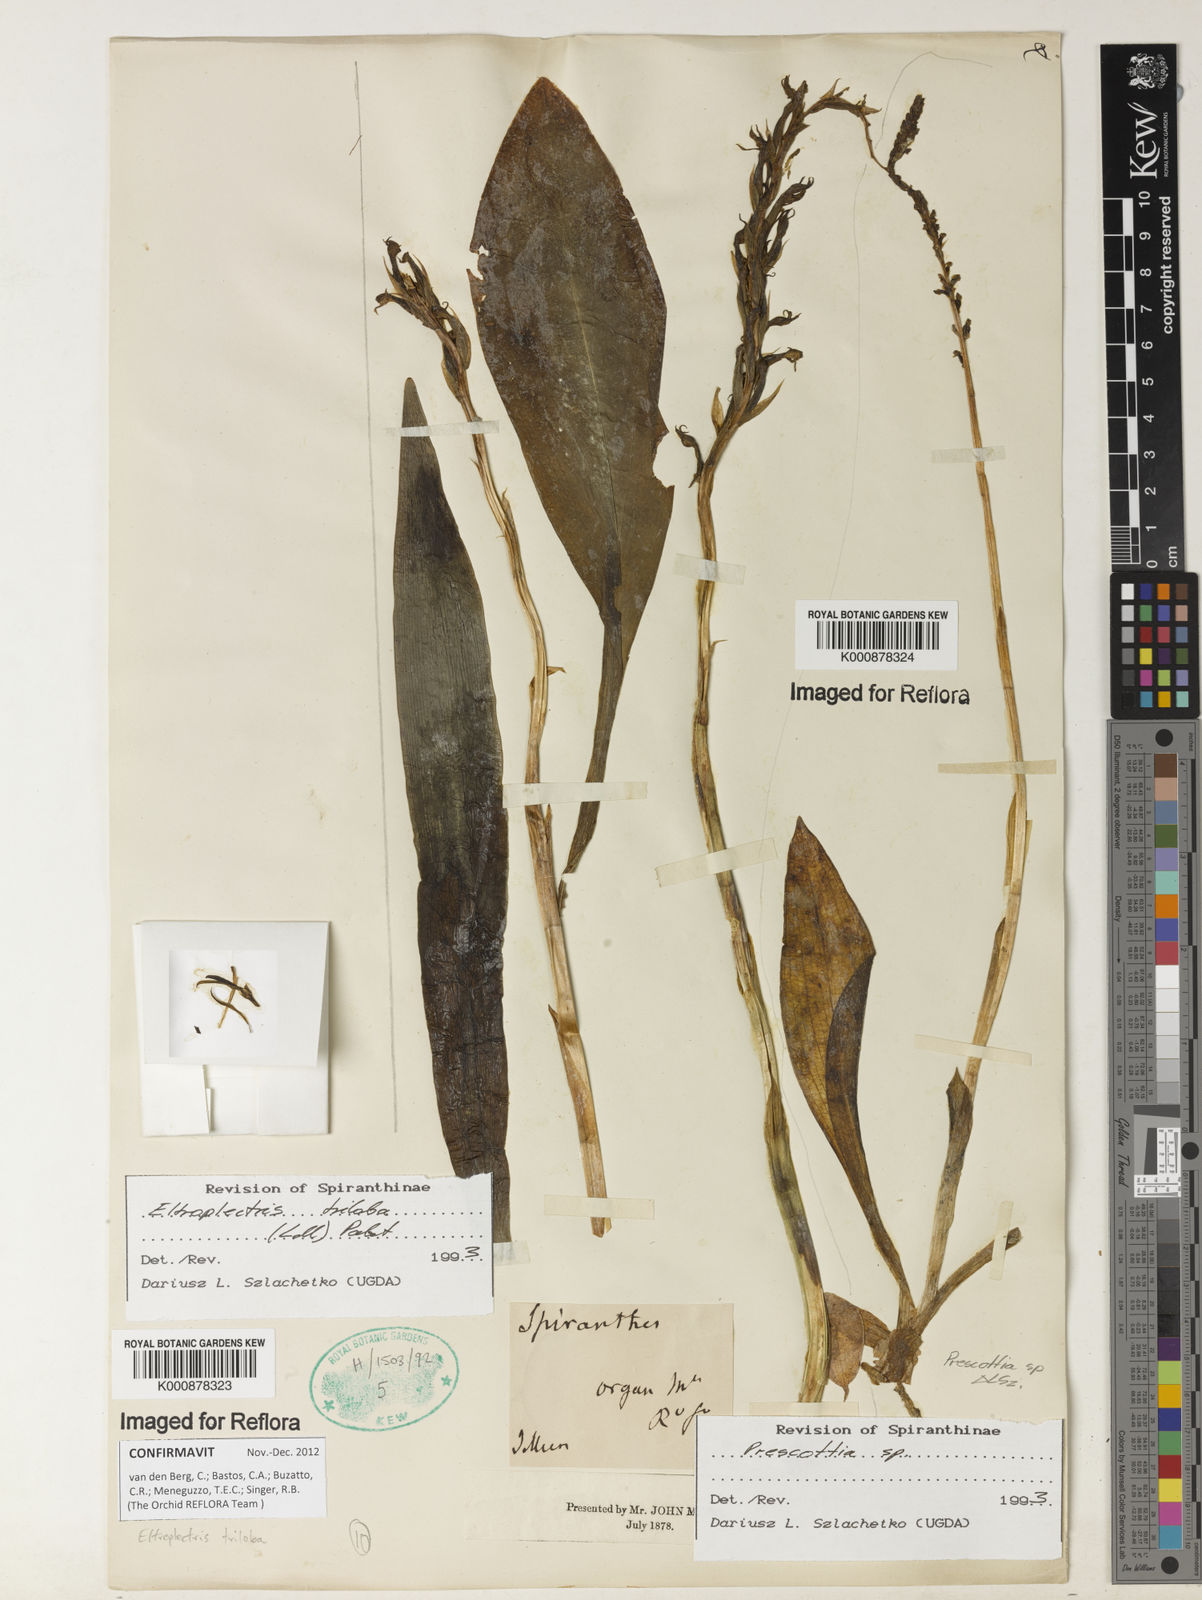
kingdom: Plantae
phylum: Tracheophyta
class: Liliopsida
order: Asparagales
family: Orchidaceae
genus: Eltroplectris
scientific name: Eltroplectris triloba
